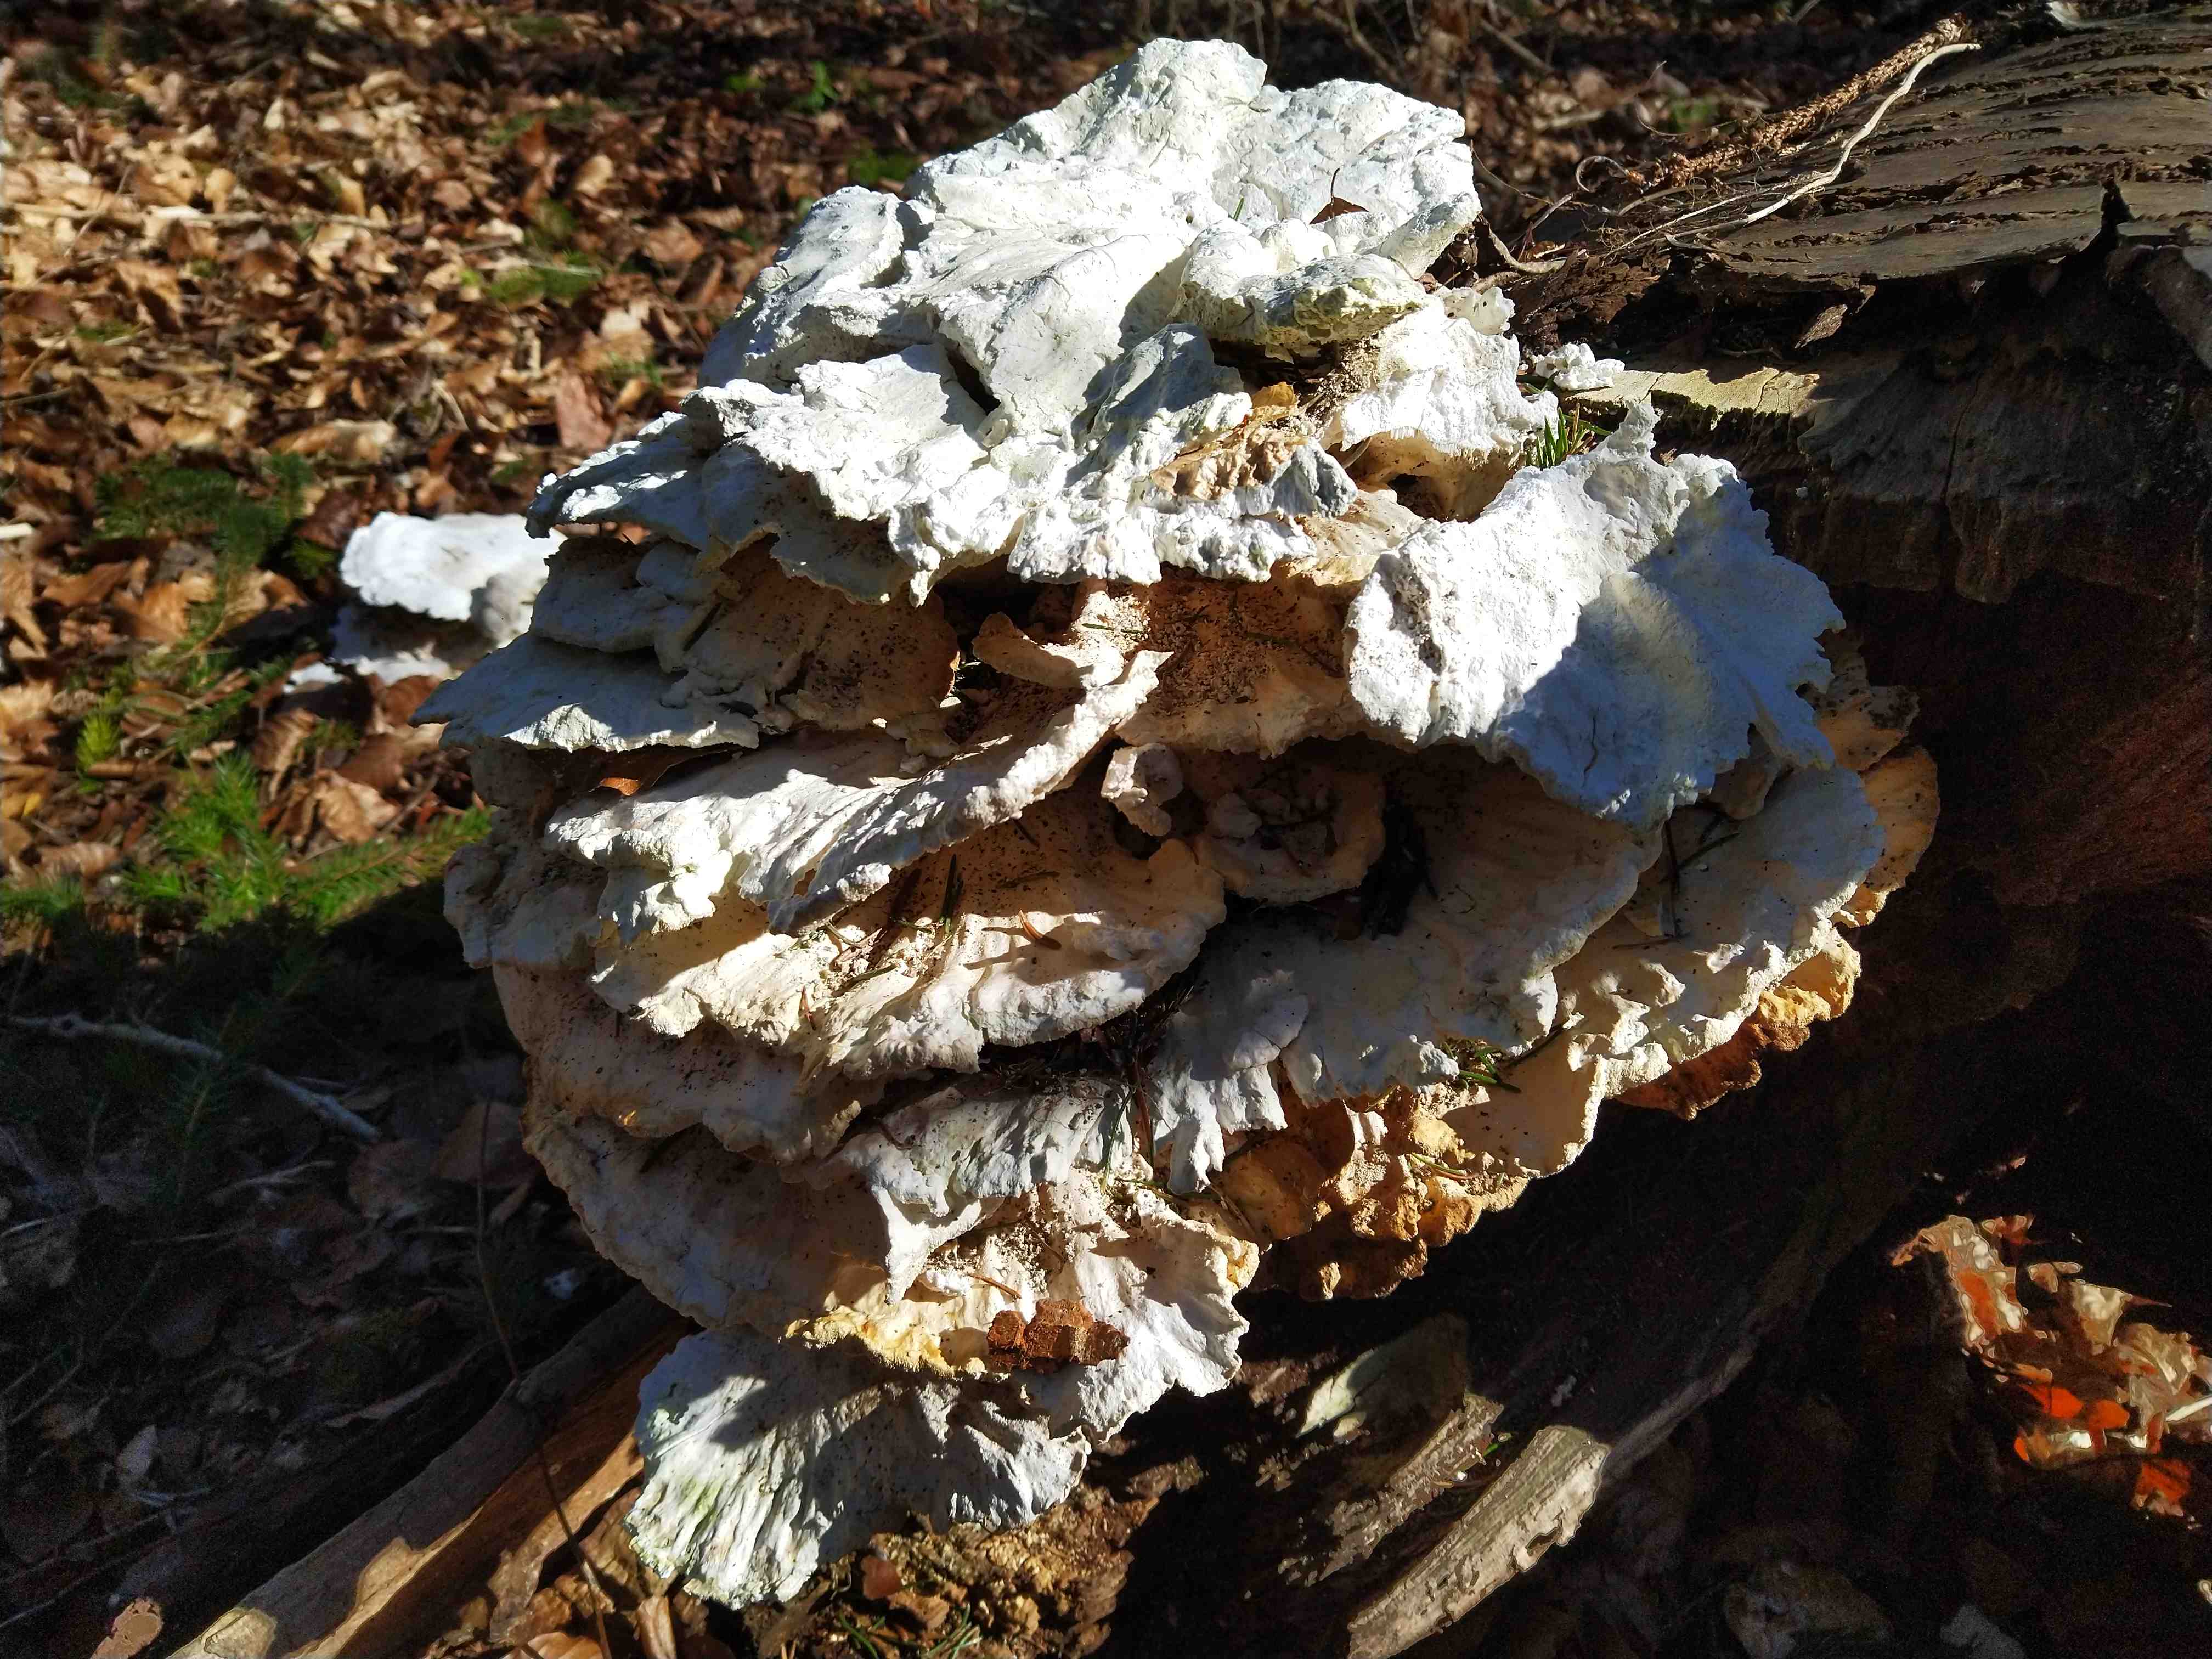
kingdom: Fungi
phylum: Basidiomycota
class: Agaricomycetes
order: Polyporales
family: Laetiporaceae
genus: Laetiporus
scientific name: Laetiporus sulphureus
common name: svovlporesvamp
